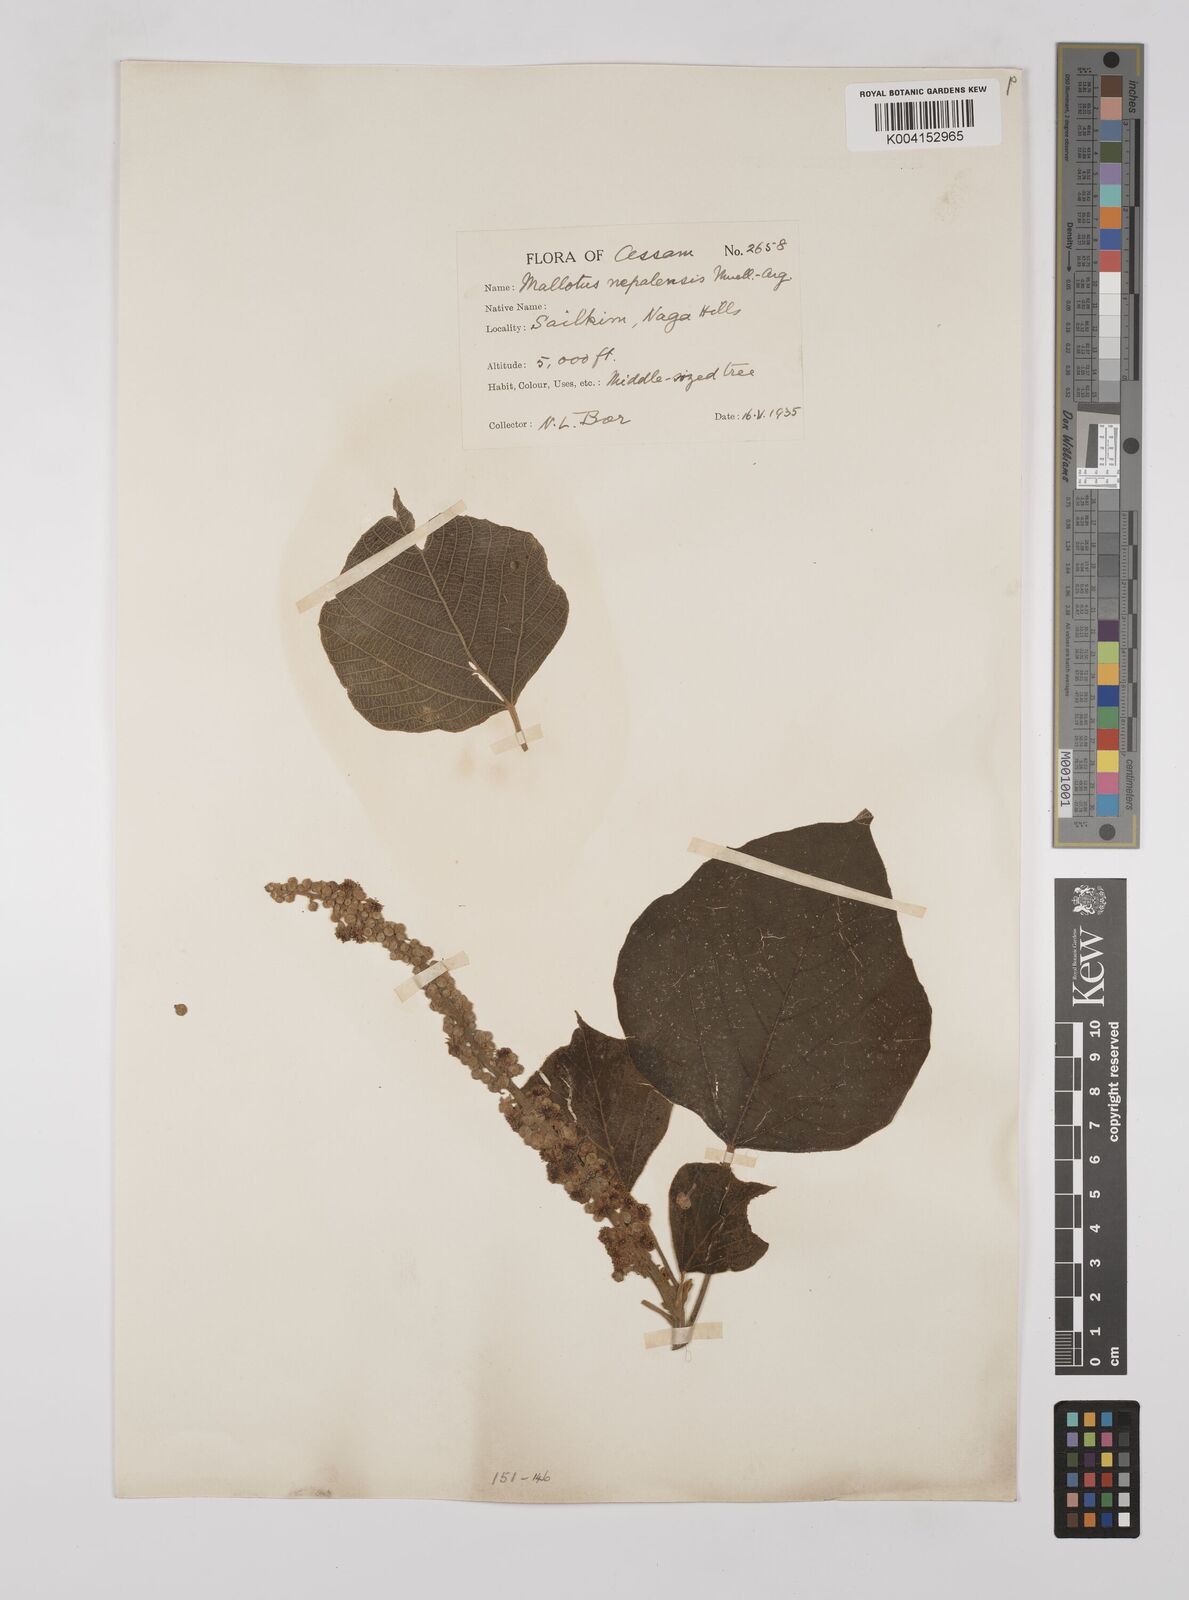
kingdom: Plantae
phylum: Tracheophyta
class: Magnoliopsida
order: Malpighiales
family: Euphorbiaceae
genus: Mallotus
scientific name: Mallotus nepalensis
